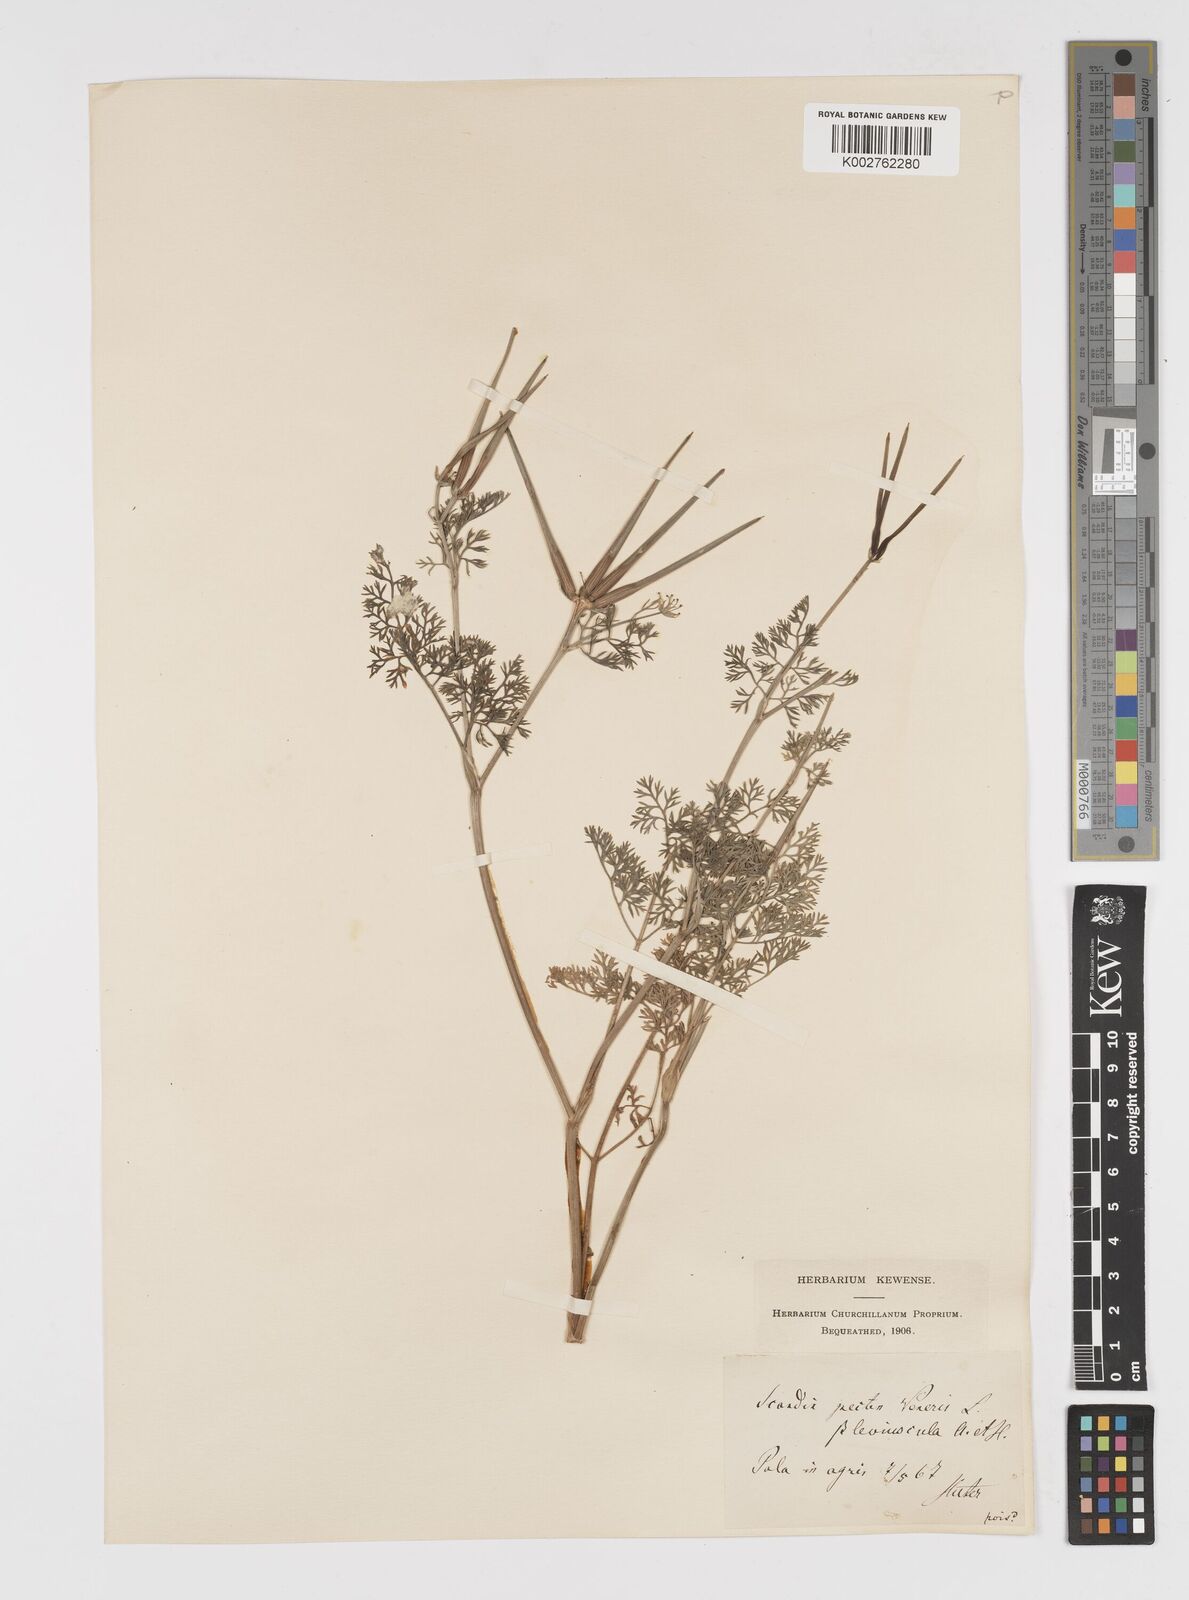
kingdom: Plantae
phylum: Tracheophyta
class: Magnoliopsida
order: Apiales
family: Apiaceae
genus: Scandix
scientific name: Scandix pecten-veneris
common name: Shepherd's-needle
